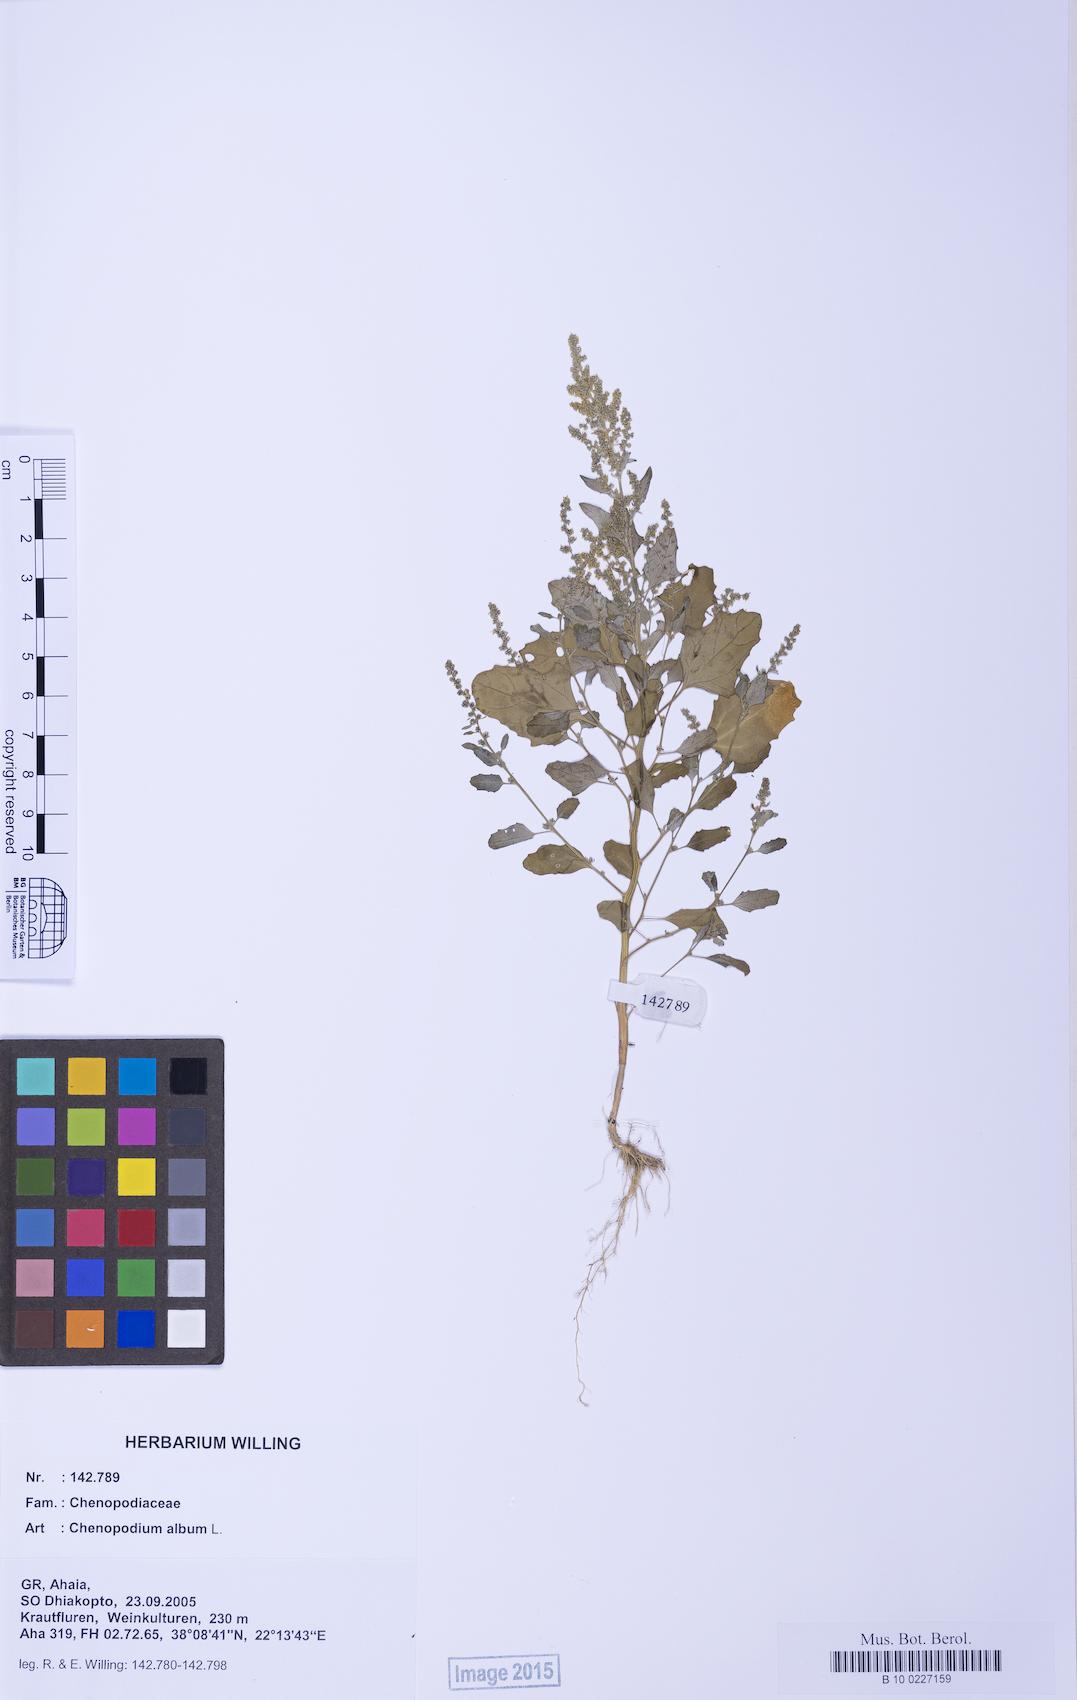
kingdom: Plantae
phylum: Tracheophyta
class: Magnoliopsida
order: Caryophyllales
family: Amaranthaceae
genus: Chenopodium
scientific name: Chenopodium striatiforme
